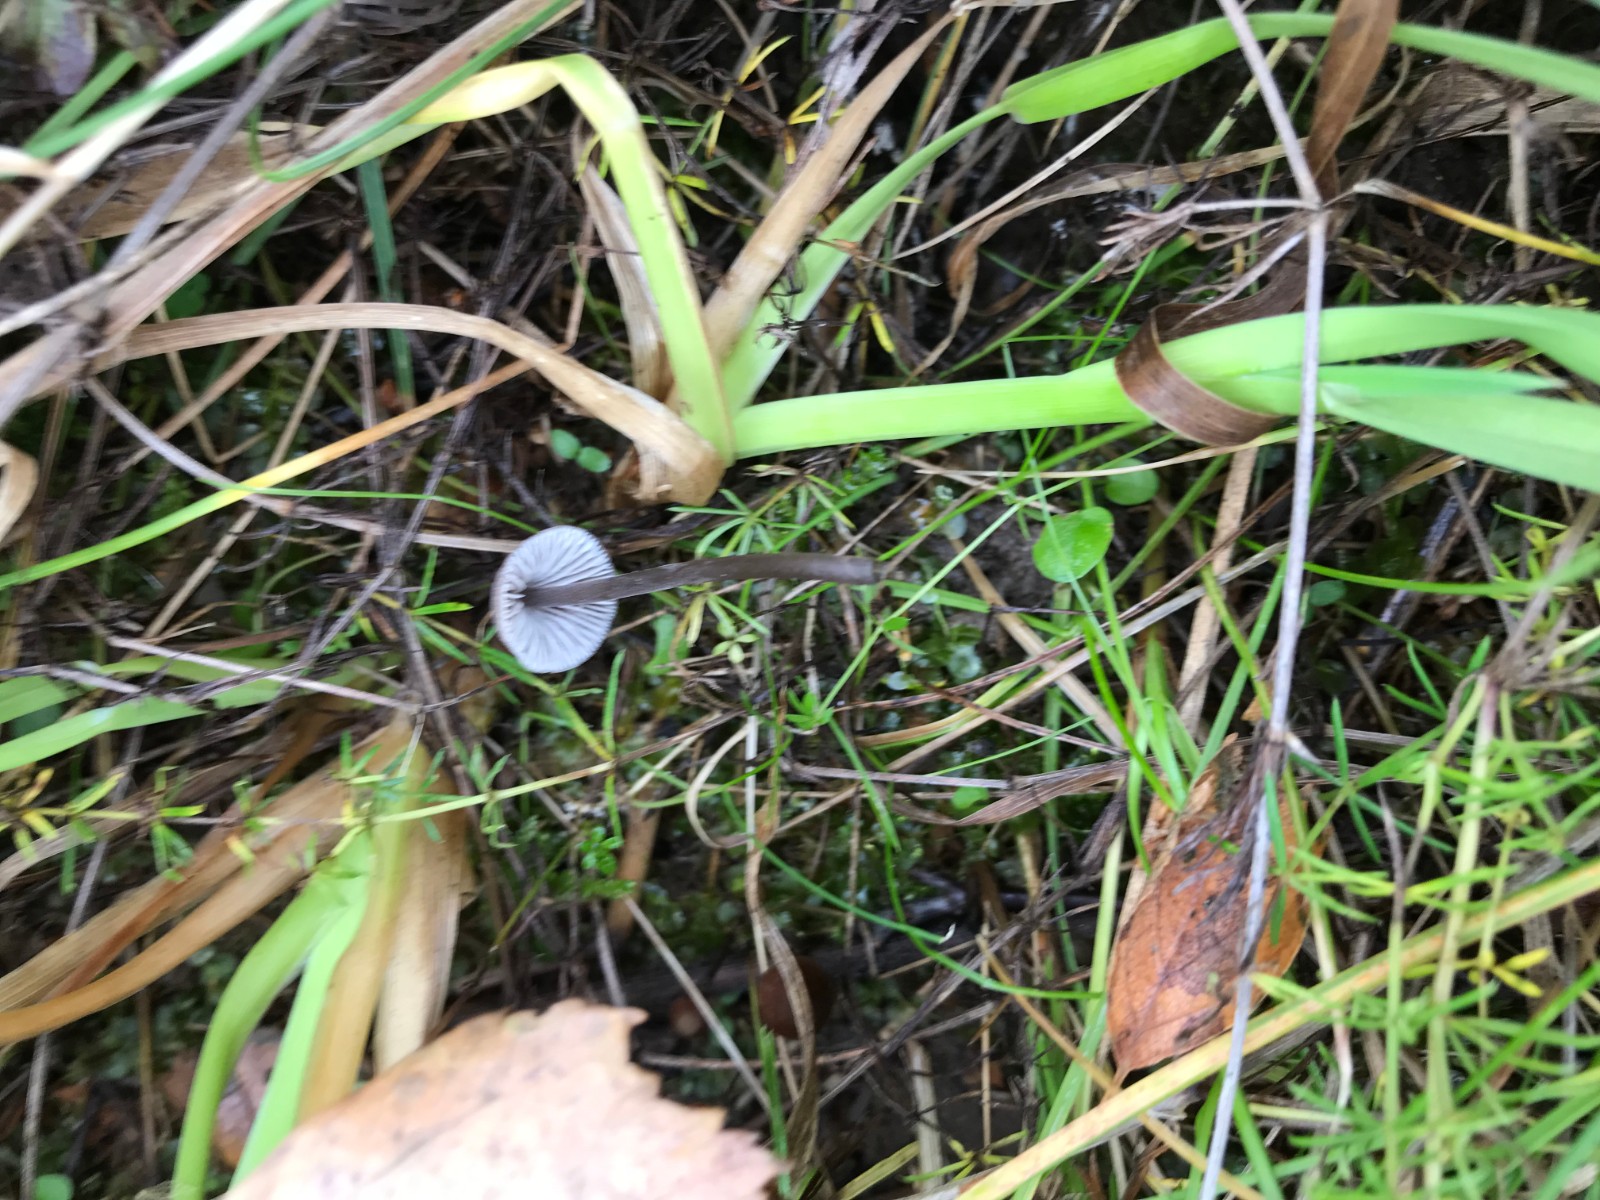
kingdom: Fungi
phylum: Basidiomycota
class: Agaricomycetes
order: Agaricales
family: Mycenaceae
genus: Mycena
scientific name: Mycena leptocephala
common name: klor-huesvamp
